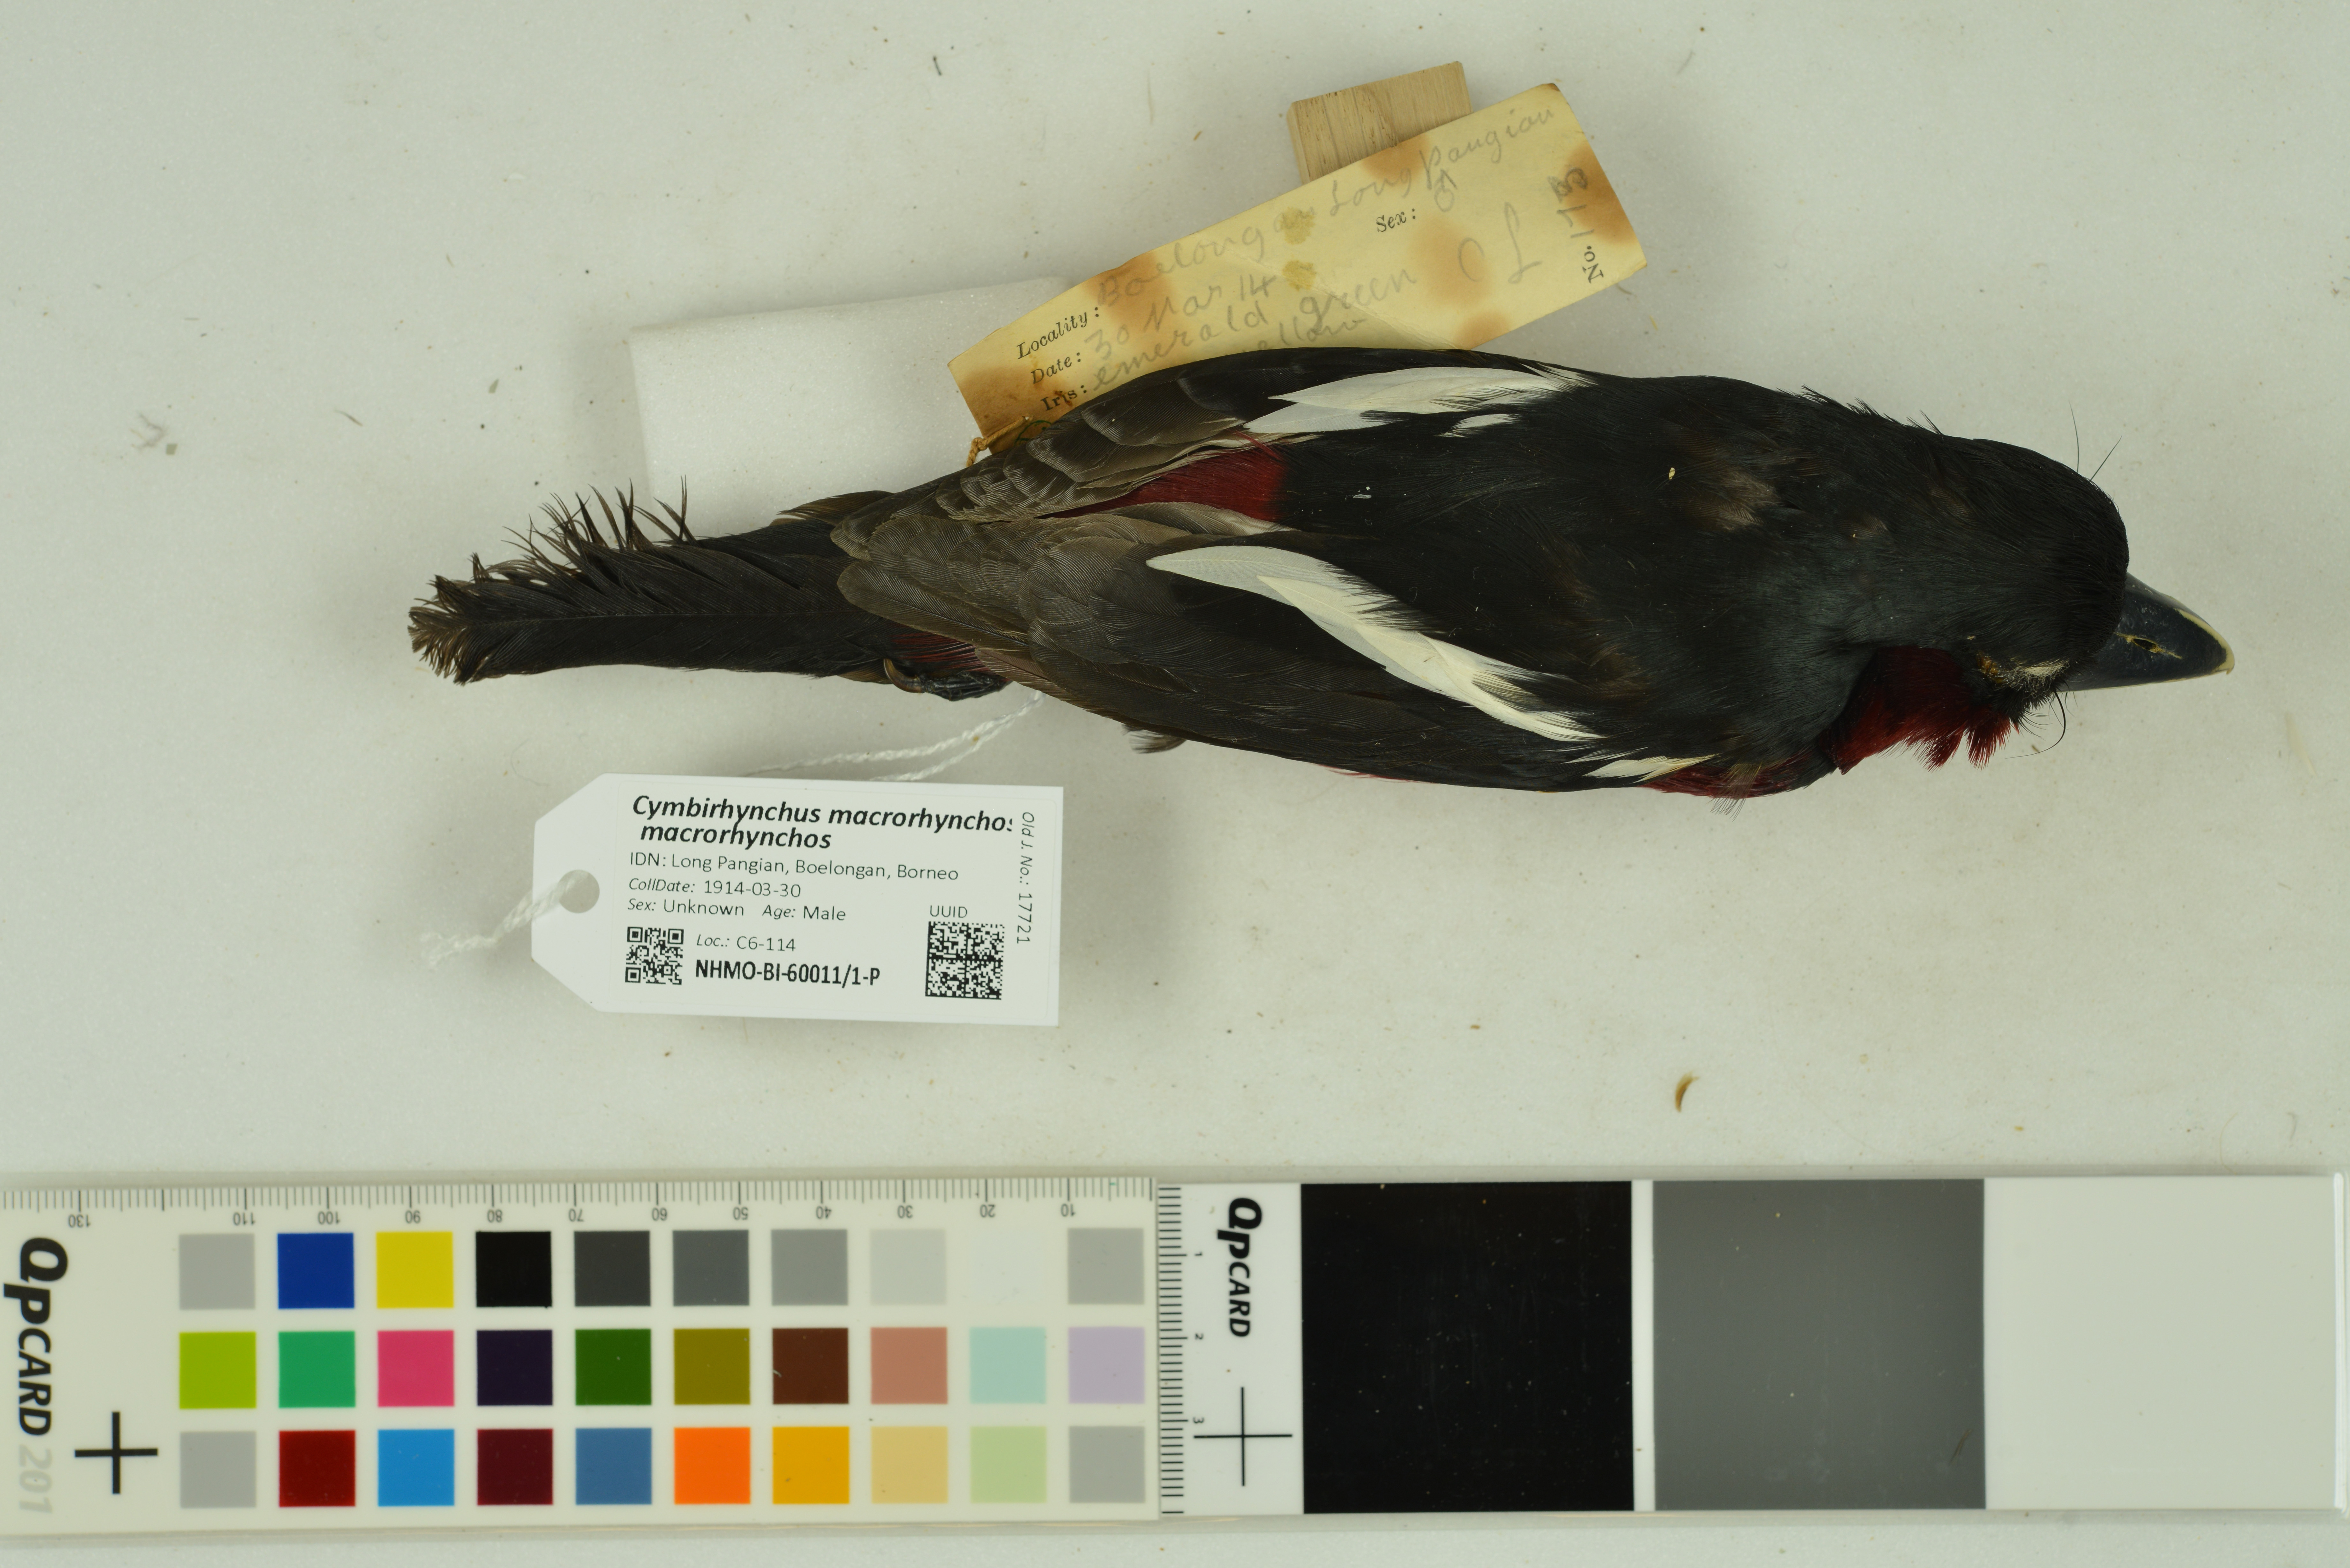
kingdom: Animalia
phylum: Chordata
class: Aves
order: Passeriformes
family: Eurylaimidae
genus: Cymbirhynchus
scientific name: Cymbirhynchus macrorhynchos
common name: Black-and-red broadbill
